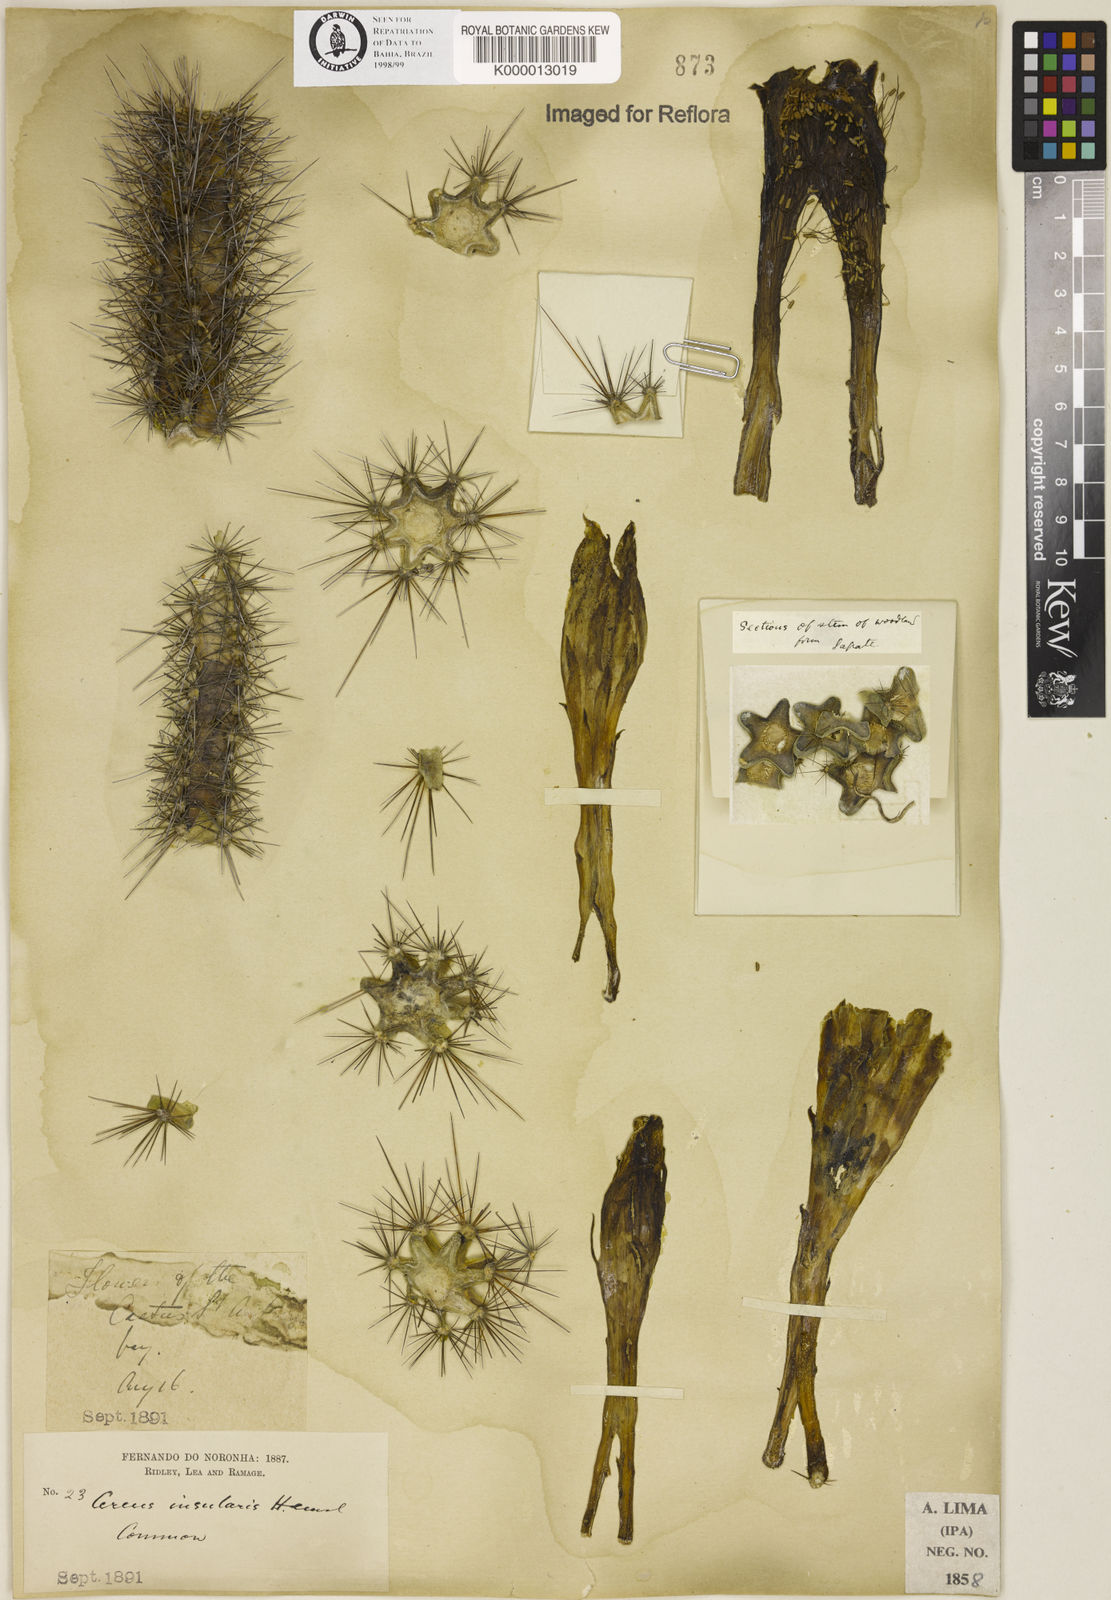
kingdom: Plantae
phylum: Tracheophyta
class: Magnoliopsida
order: Caryophyllales
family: Cactaceae
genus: Cereus
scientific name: Cereus insularis
